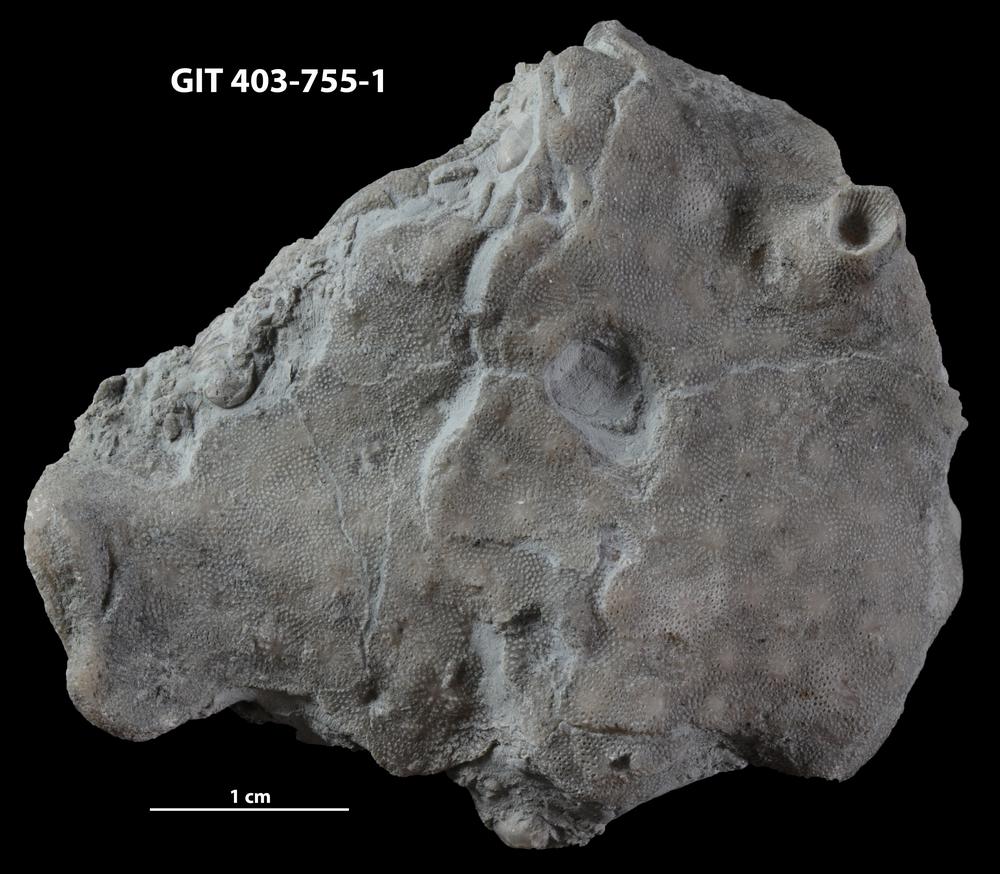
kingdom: Animalia
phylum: Bryozoa
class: Stenolaemata
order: Cystoporida
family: Fistuliporidae
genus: Fistulipora
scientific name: Fistulipora przhidolensis
